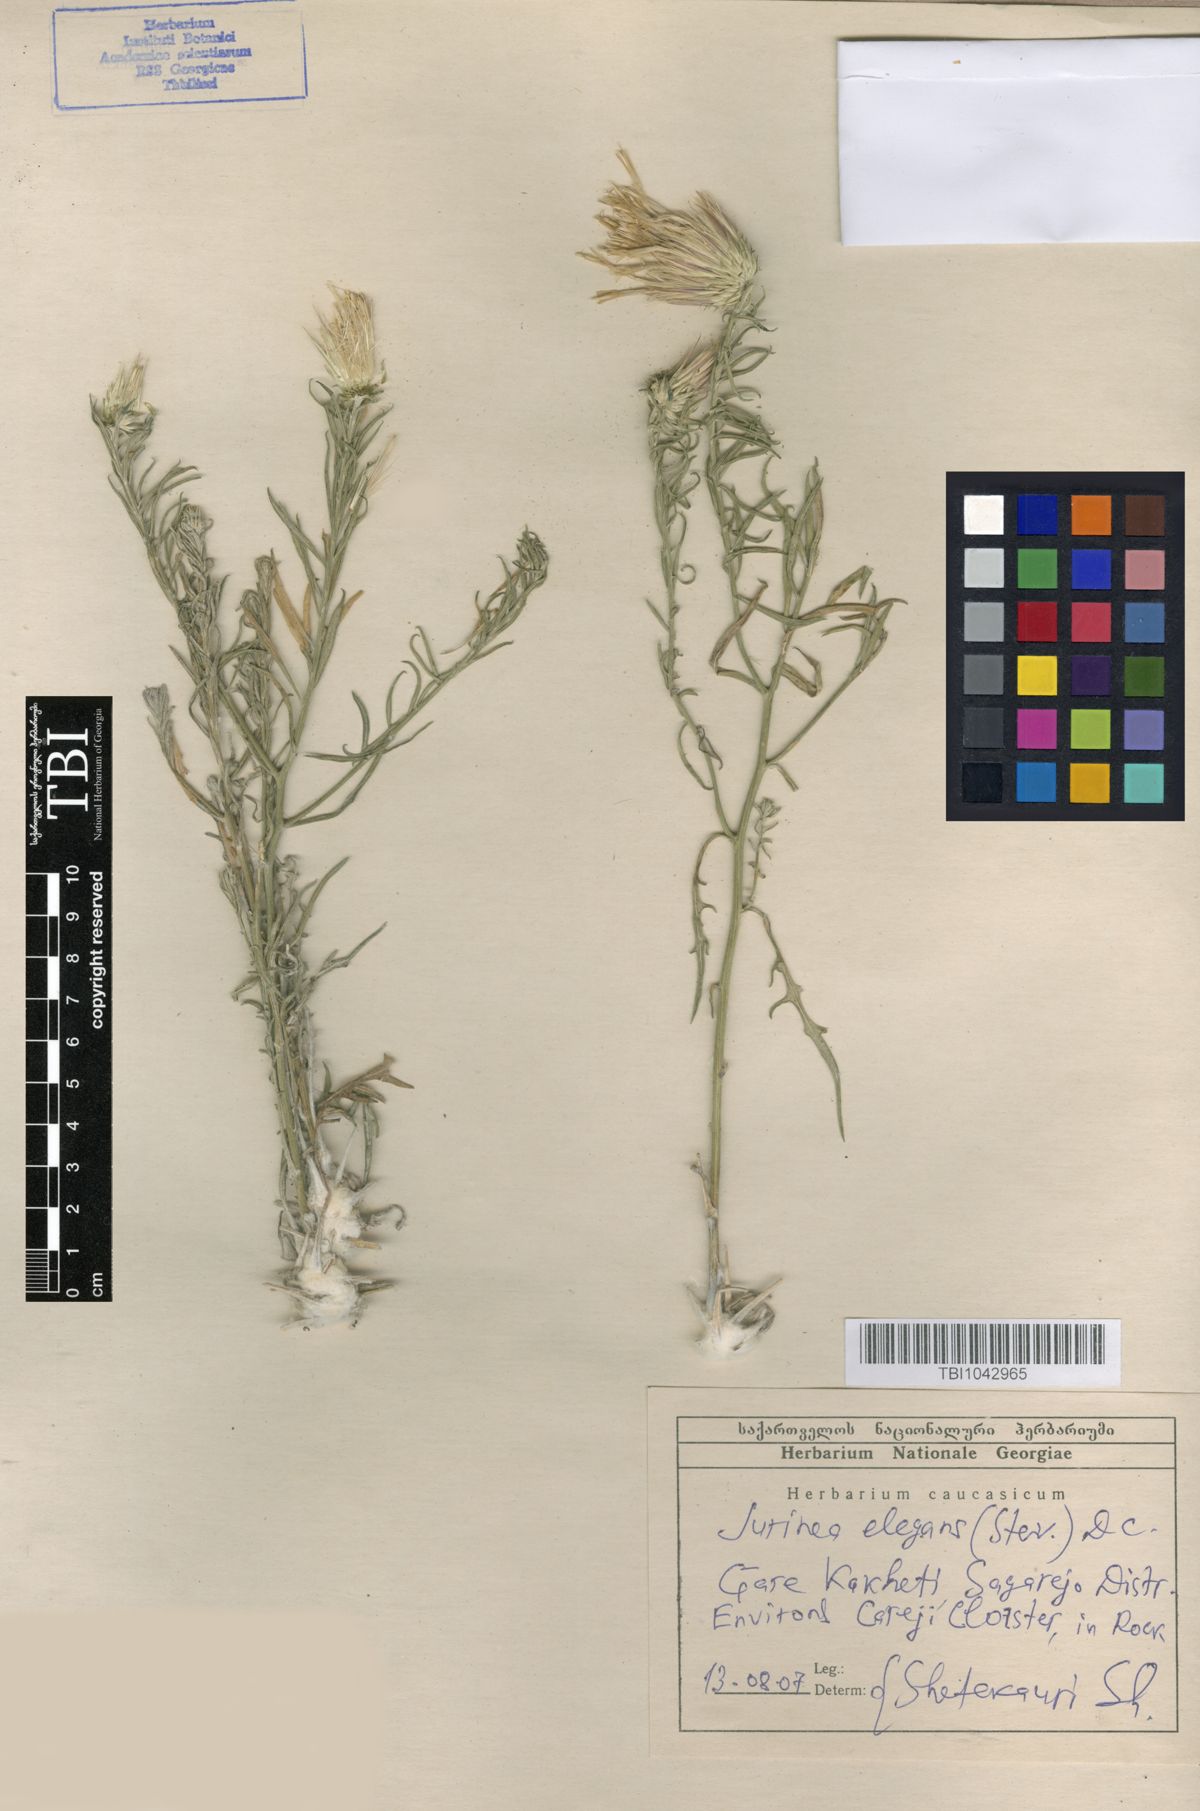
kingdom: Plantae
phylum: Tracheophyta
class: Magnoliopsida
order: Asterales
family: Asteraceae
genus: Jurinea
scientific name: Jurinea elegans
